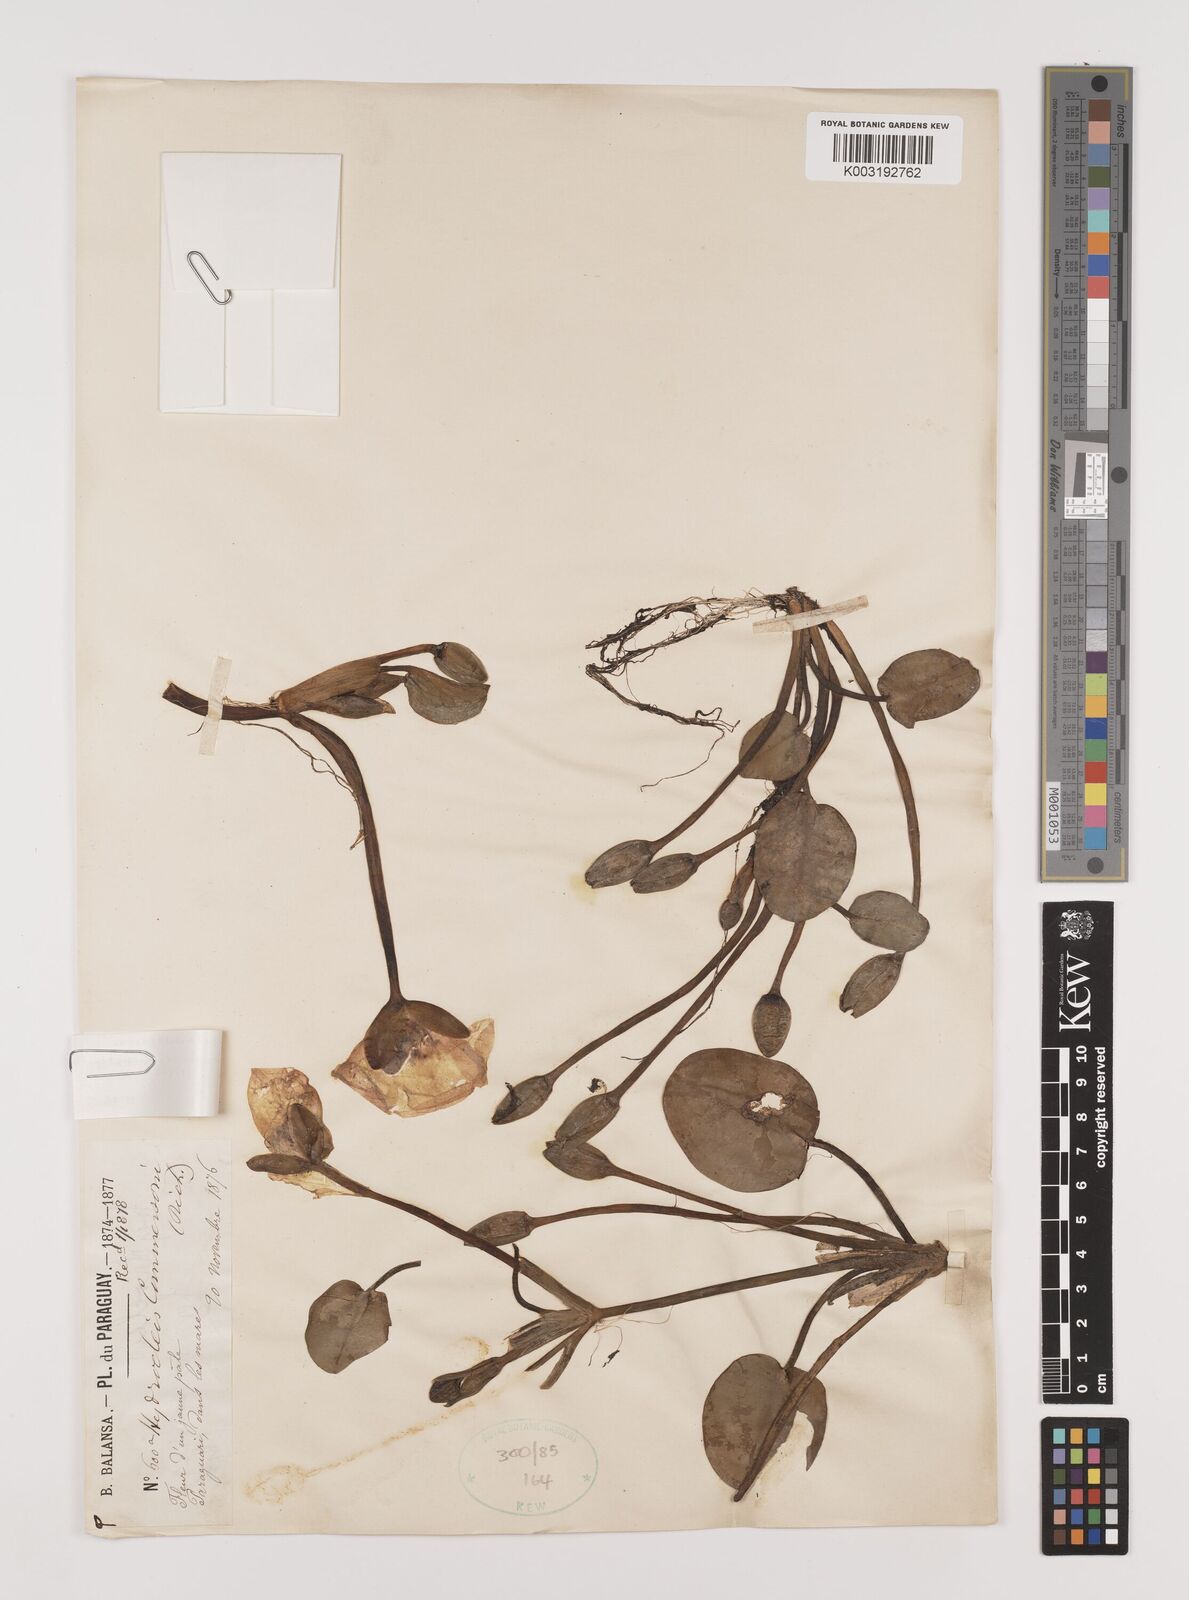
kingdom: Plantae
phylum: Tracheophyta
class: Liliopsida
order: Alismatales
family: Alismataceae
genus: Hydrocleys
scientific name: Hydrocleys nymphoides
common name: Water-poppy
